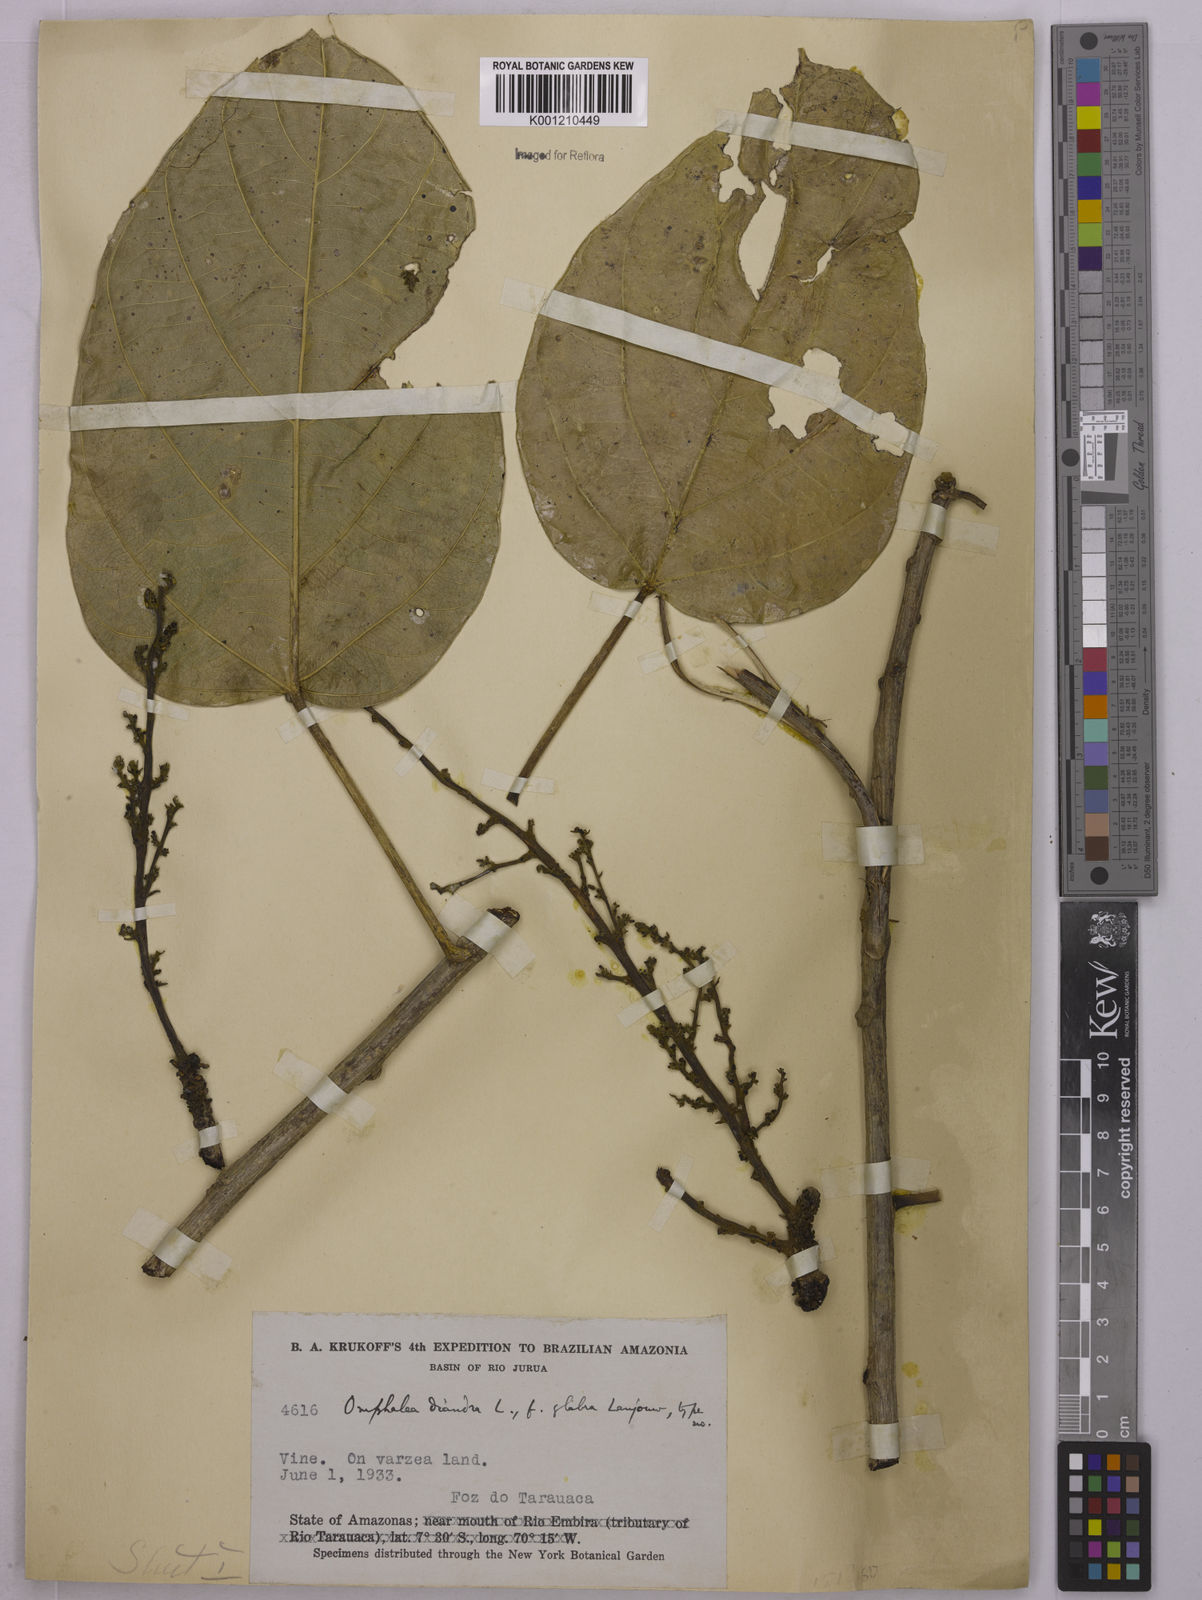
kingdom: Plantae
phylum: Tracheophyta
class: Magnoliopsida
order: Malpighiales
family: Euphorbiaceae
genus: Omphalea
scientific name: Omphalea diandra
